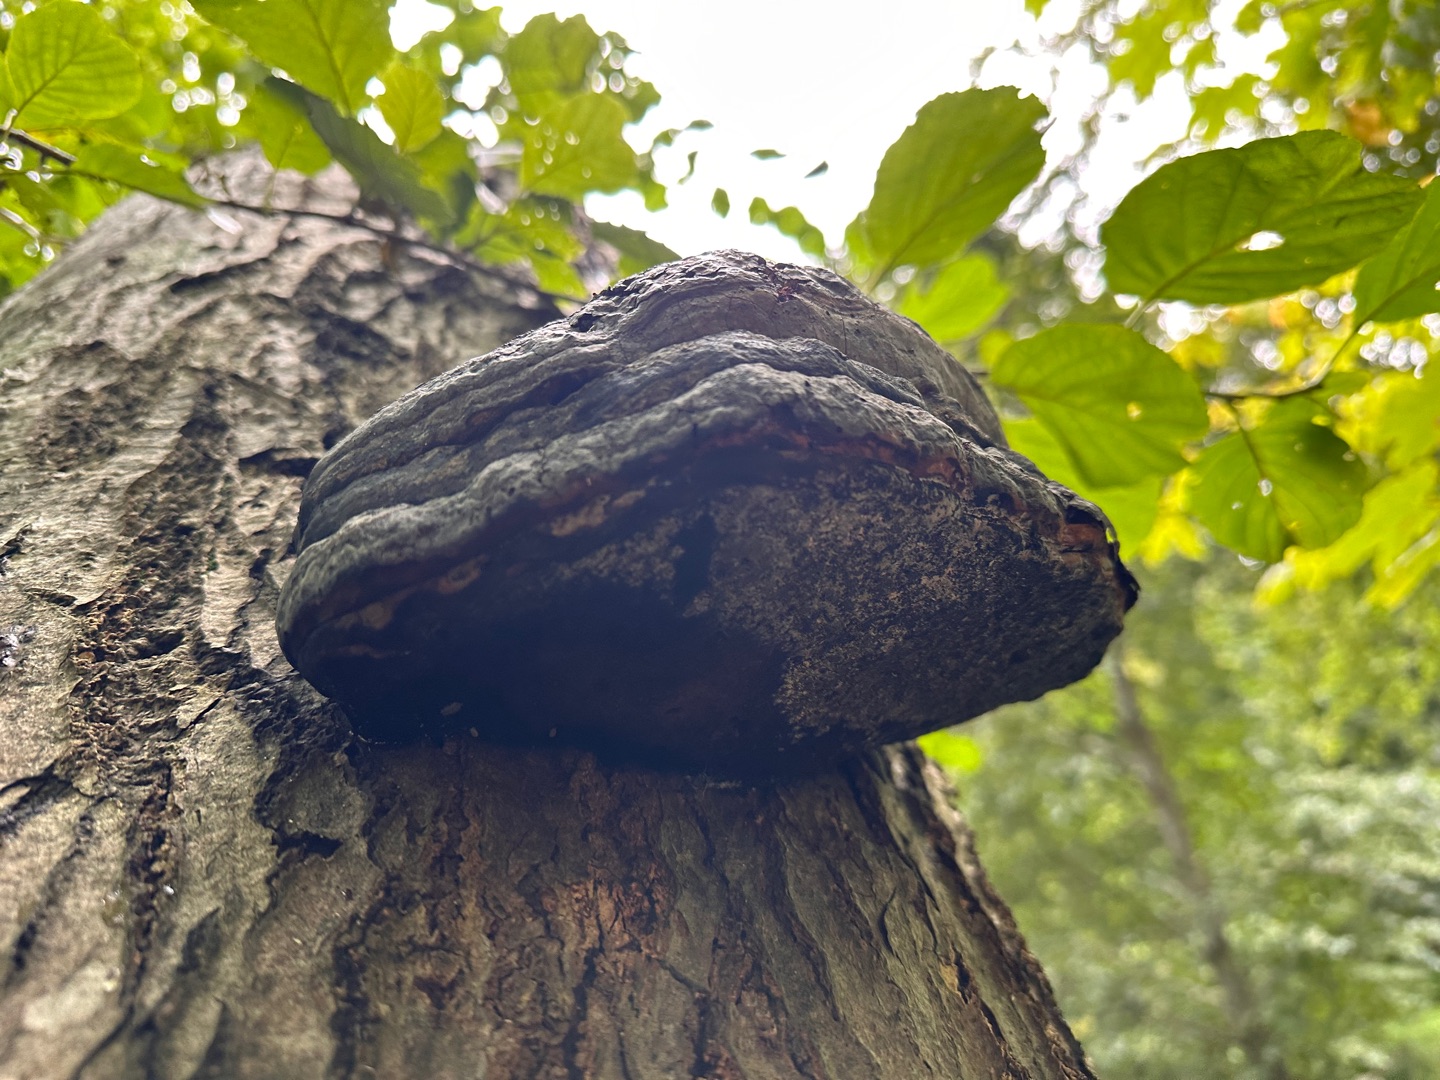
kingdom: Fungi
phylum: Basidiomycota
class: Agaricomycetes
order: Polyporales
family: Polyporaceae
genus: Fomes
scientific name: Fomes fomentarius
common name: Tøndersvamp
